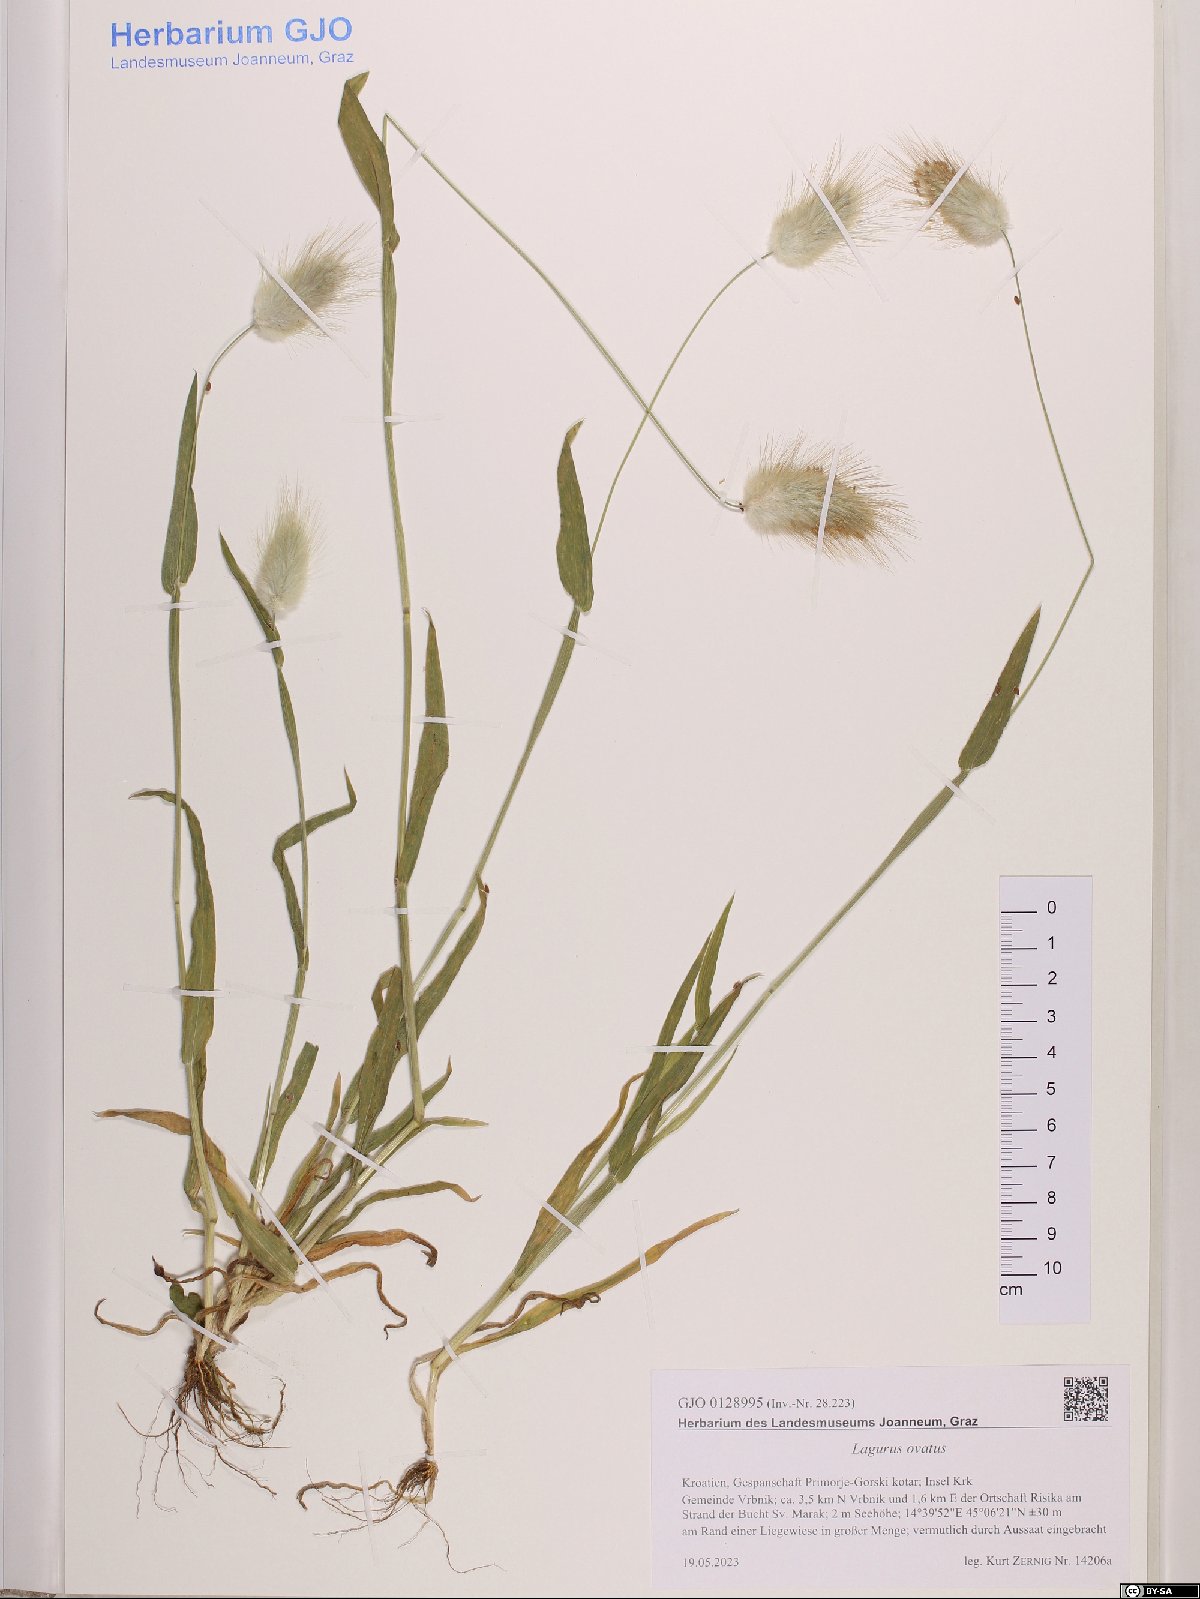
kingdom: Plantae
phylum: Tracheophyta
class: Liliopsida
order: Poales
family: Poaceae
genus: Lagurus
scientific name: Lagurus ovatus
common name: Hare's-tail
